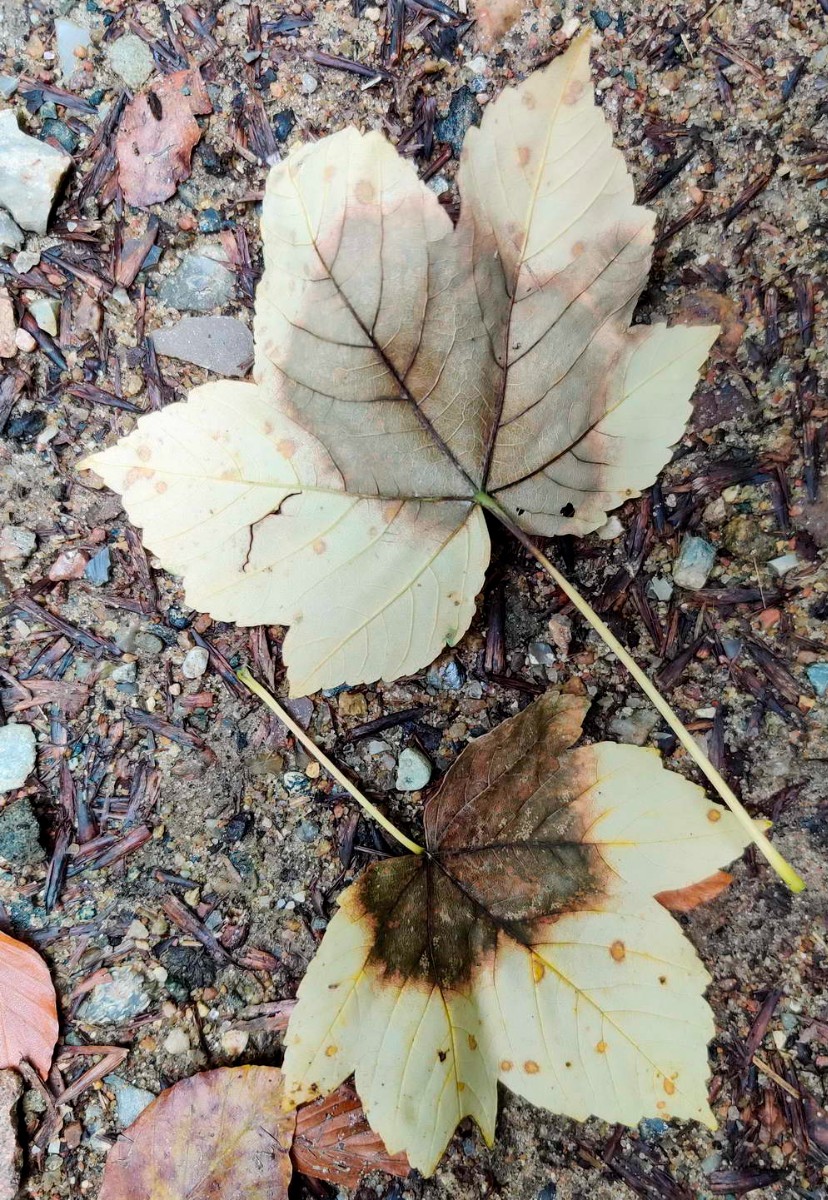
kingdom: Fungi
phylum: Ascomycota
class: Sordariomycetes
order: Diaporthales
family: Gnomoniaceae
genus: Pleuroceras
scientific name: Pleuroceras pseudoplatani
